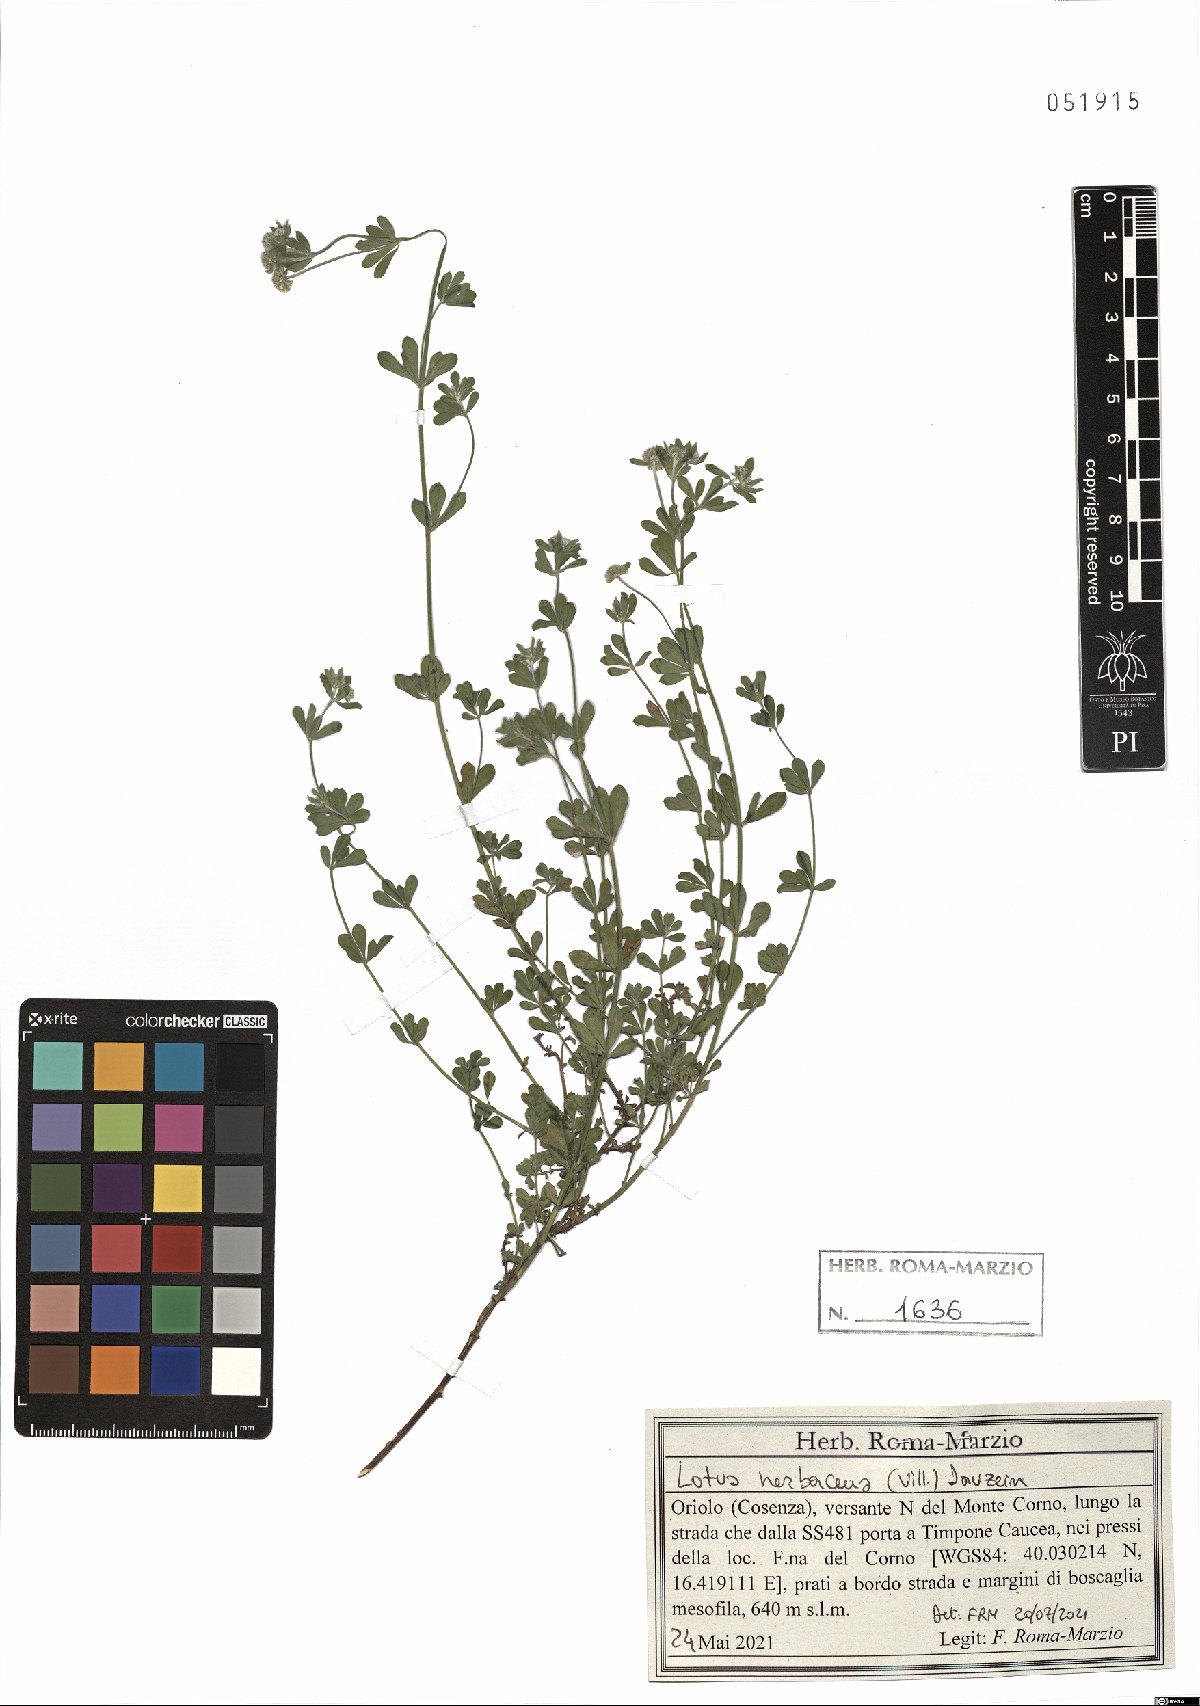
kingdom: Plantae
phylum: Tracheophyta
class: Magnoliopsida
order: Fabales
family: Fabaceae
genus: Lotus
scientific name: Lotus herbaceus
